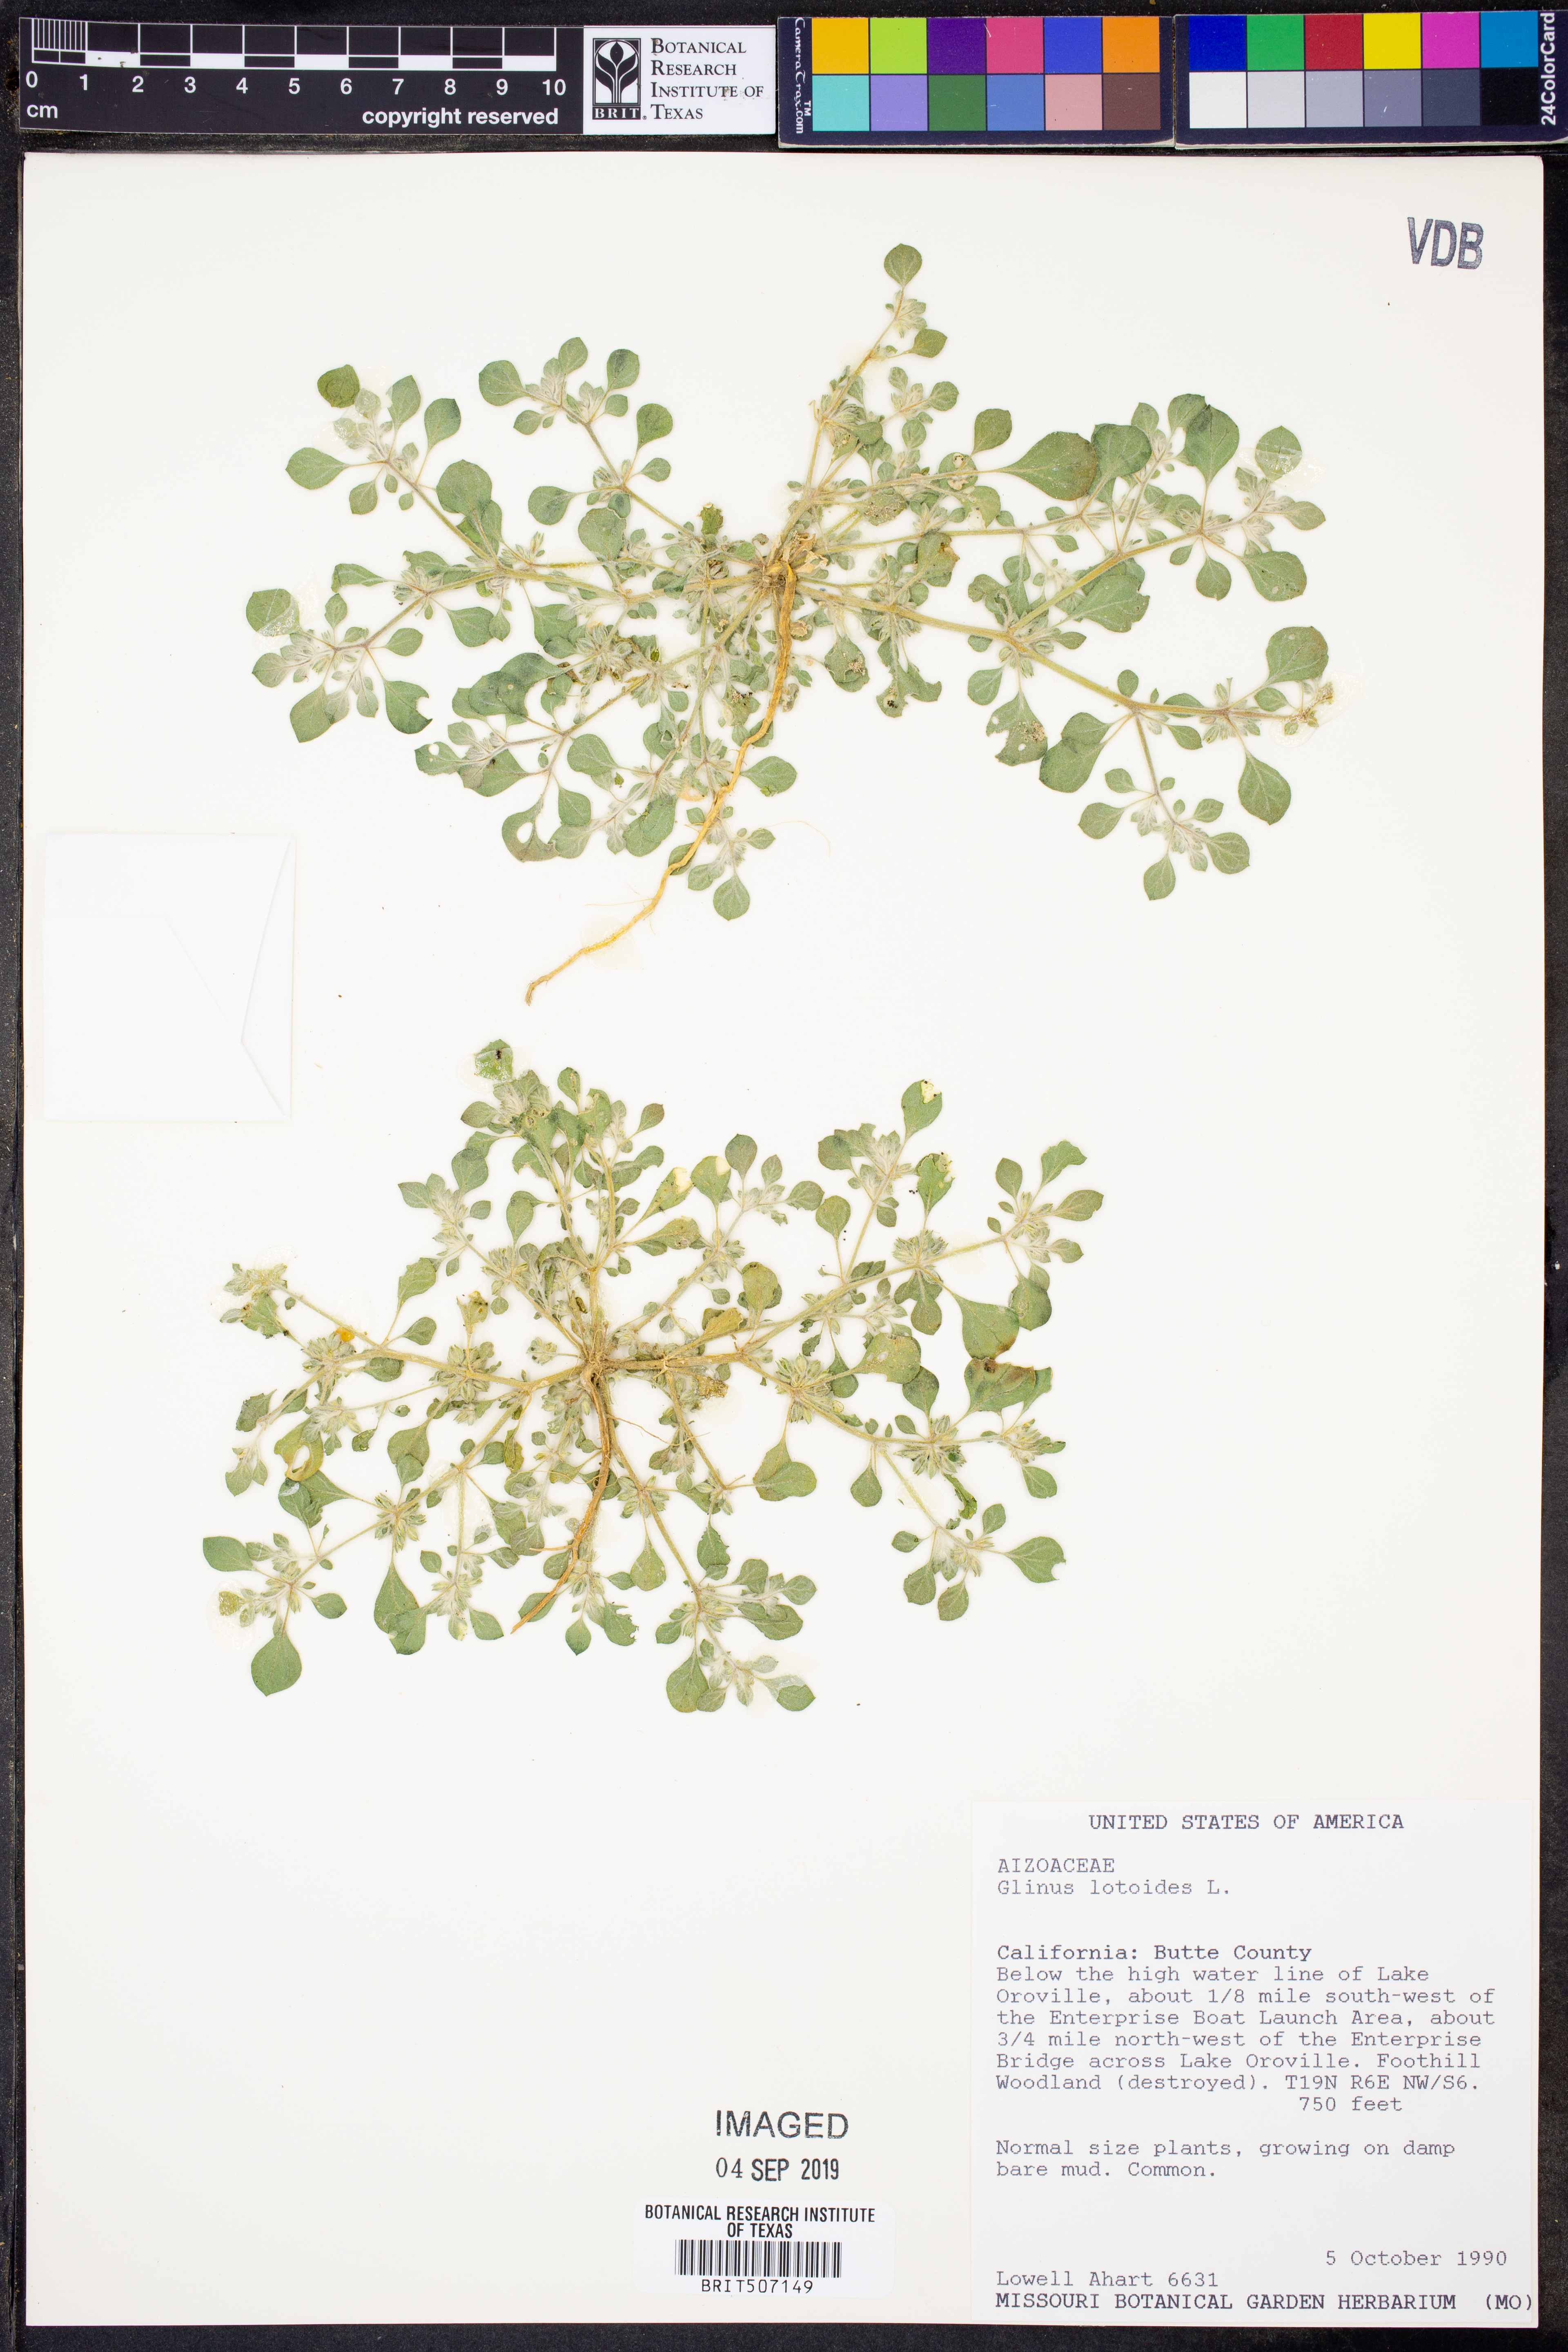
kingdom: Plantae
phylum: Tracheophyta
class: Magnoliopsida
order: Caryophyllales
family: Molluginaceae
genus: Glinus
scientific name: Glinus lotoides
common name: Lotus sweetjuice
